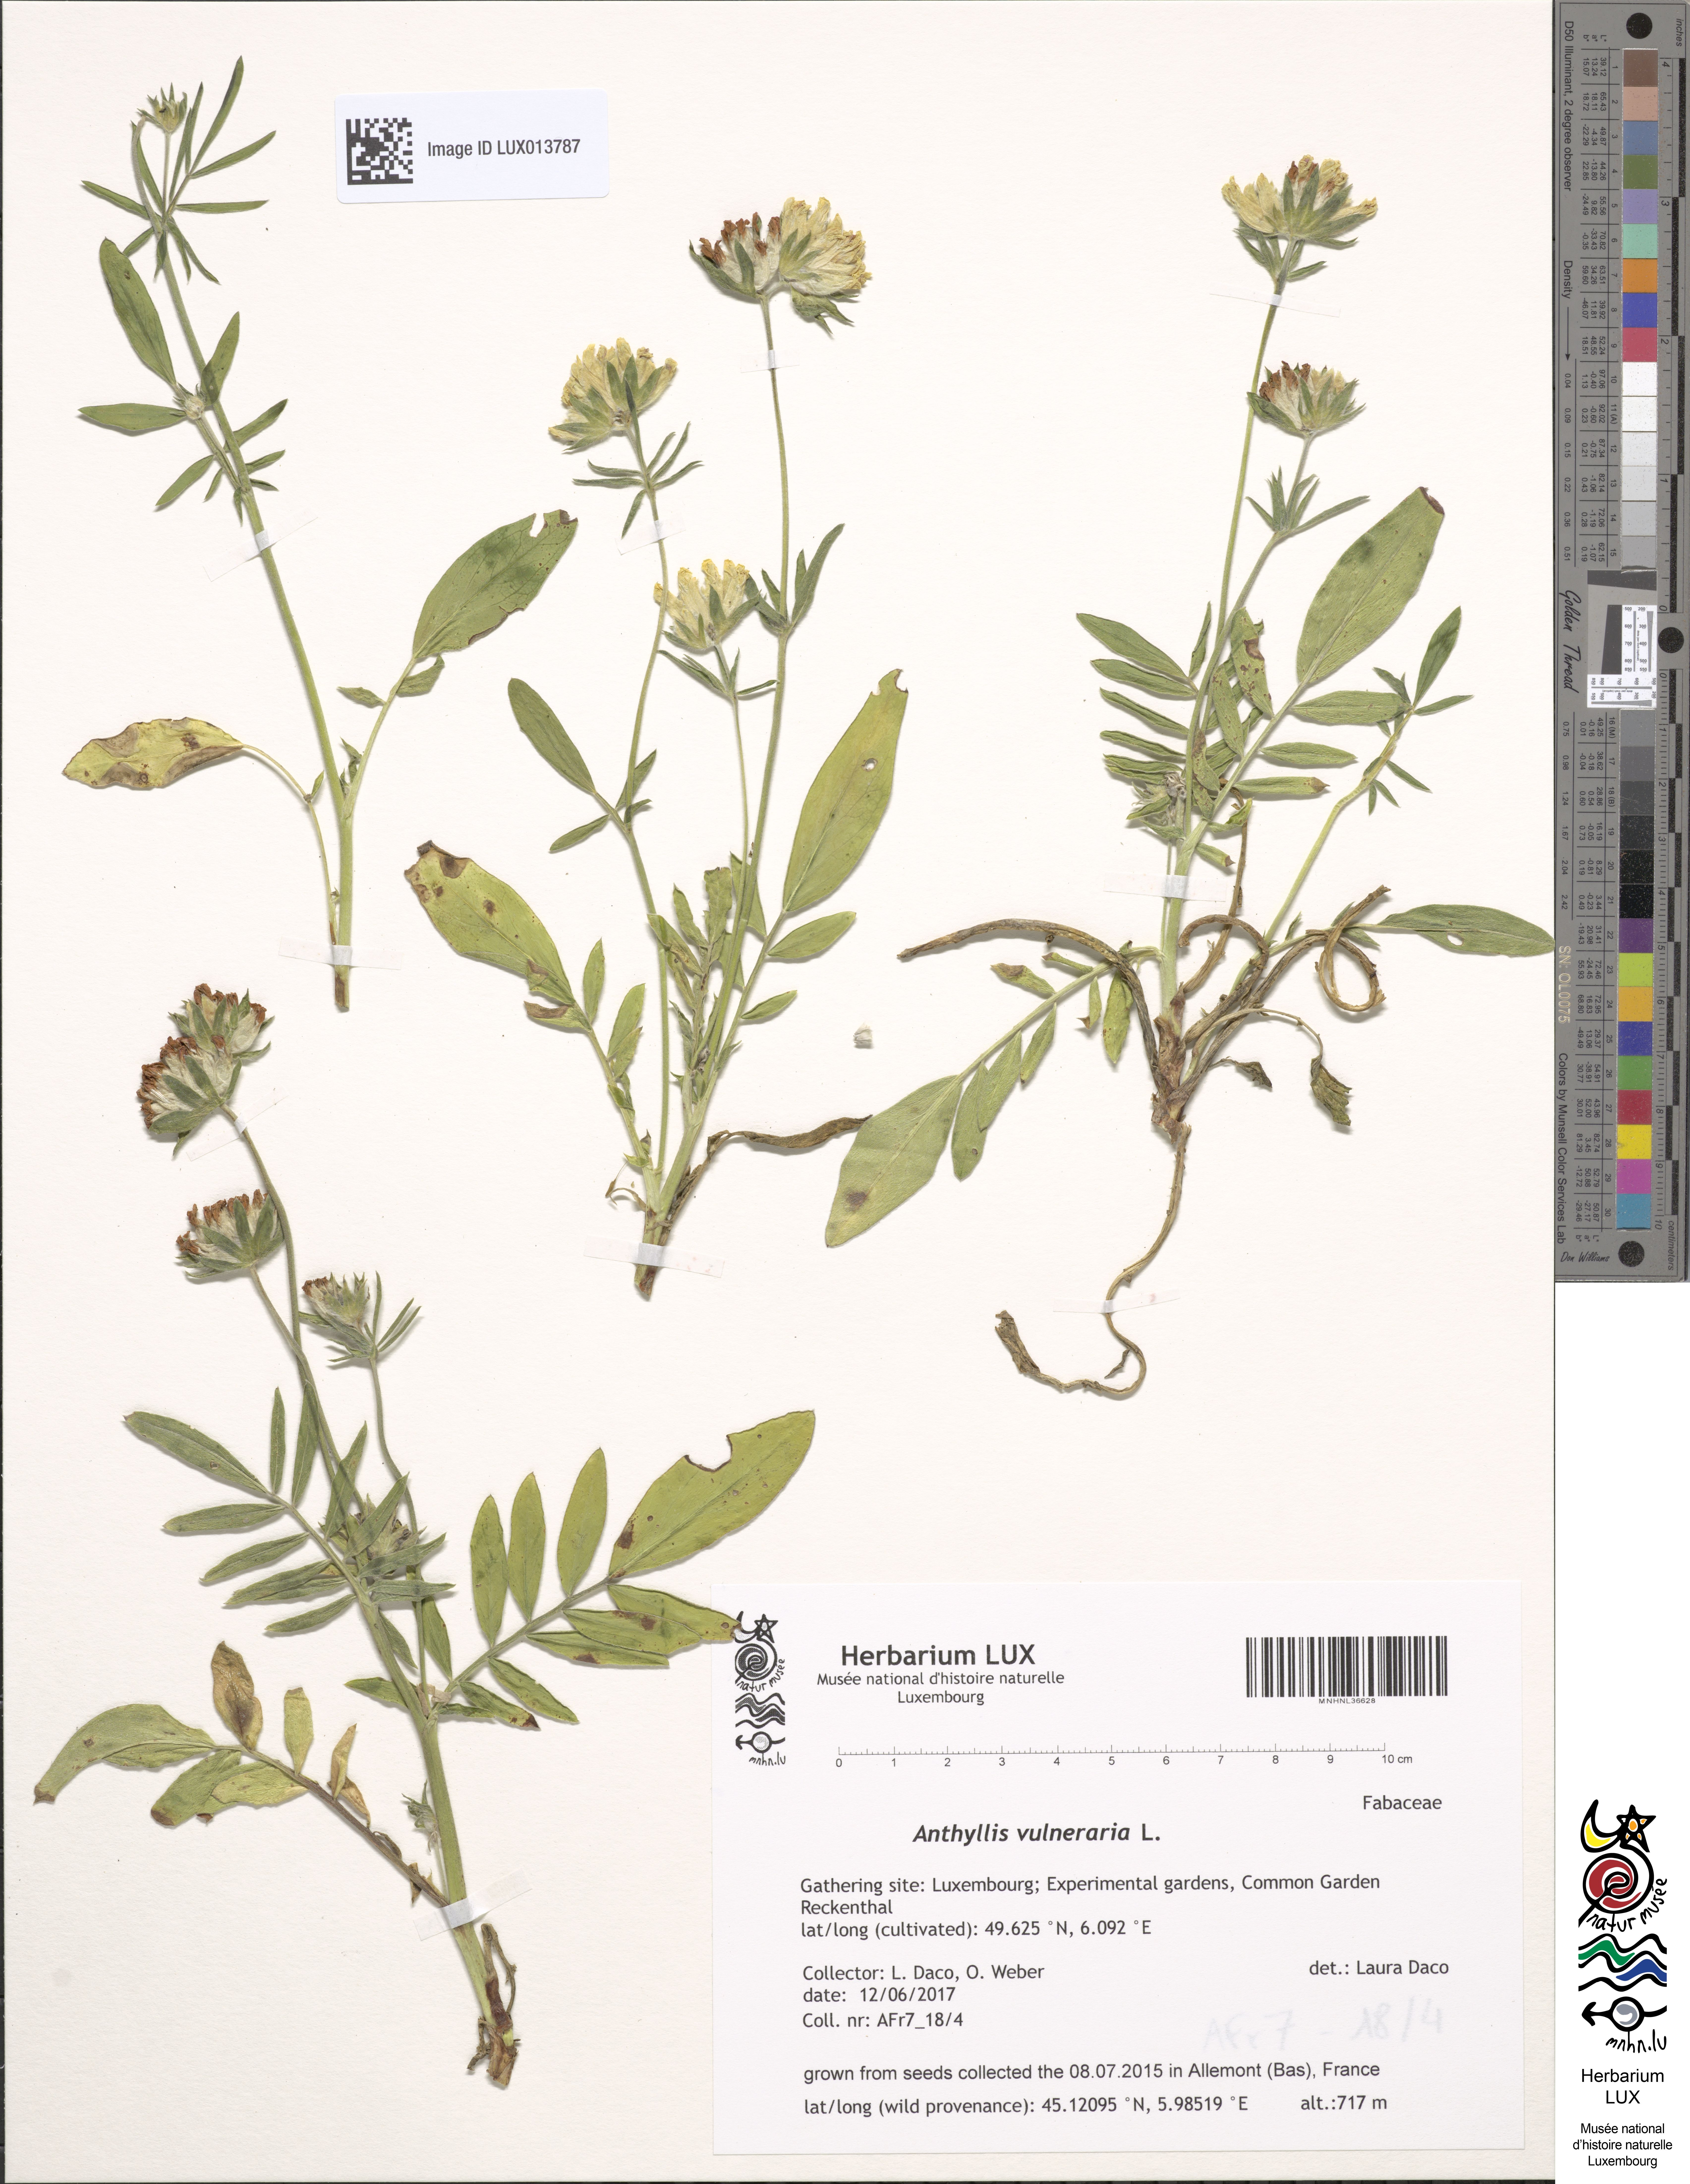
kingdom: Plantae
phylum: Tracheophyta
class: Magnoliopsida
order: Fabales
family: Fabaceae
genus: Anthyllis
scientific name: Anthyllis vulneraria
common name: Kidney vetch
